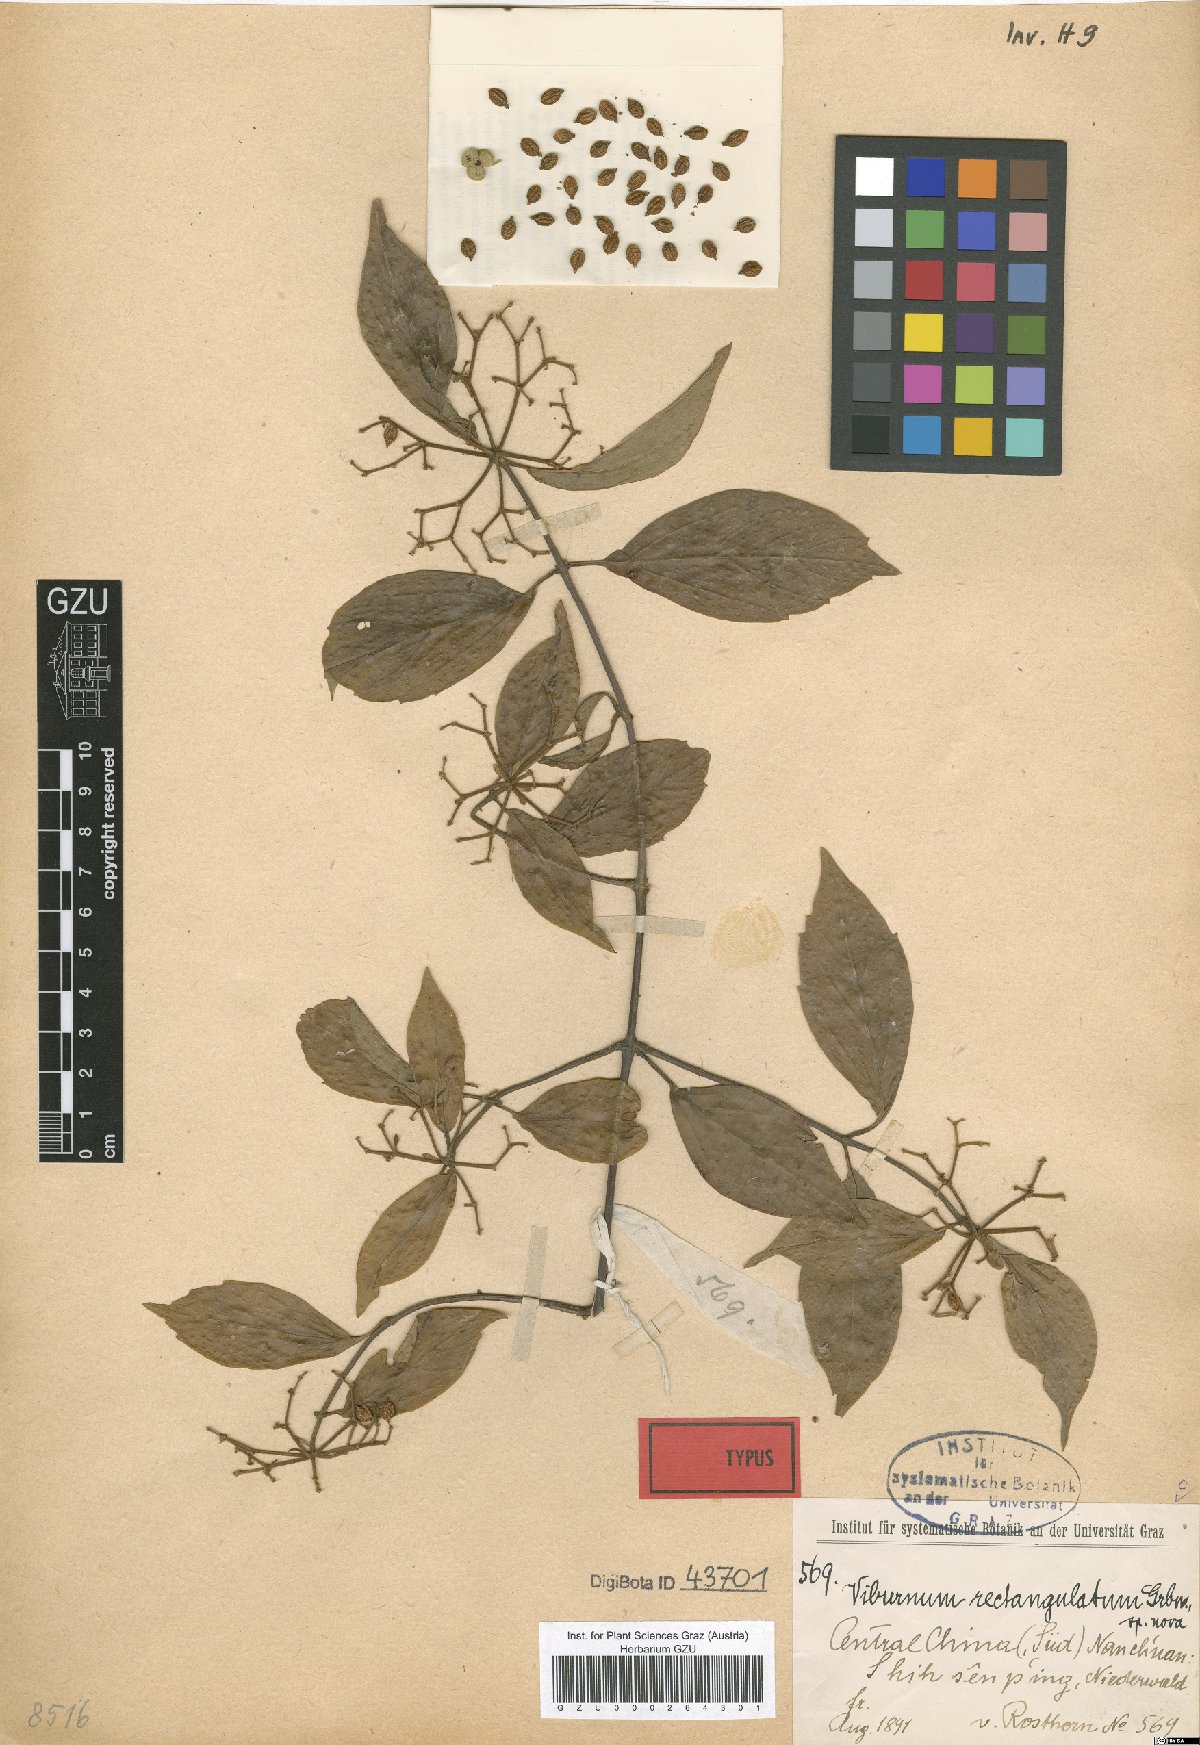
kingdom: Plantae
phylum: Tracheophyta
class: Magnoliopsida
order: Dipsacales
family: Viburnaceae
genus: Viburnum
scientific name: Viburnum foetidum
